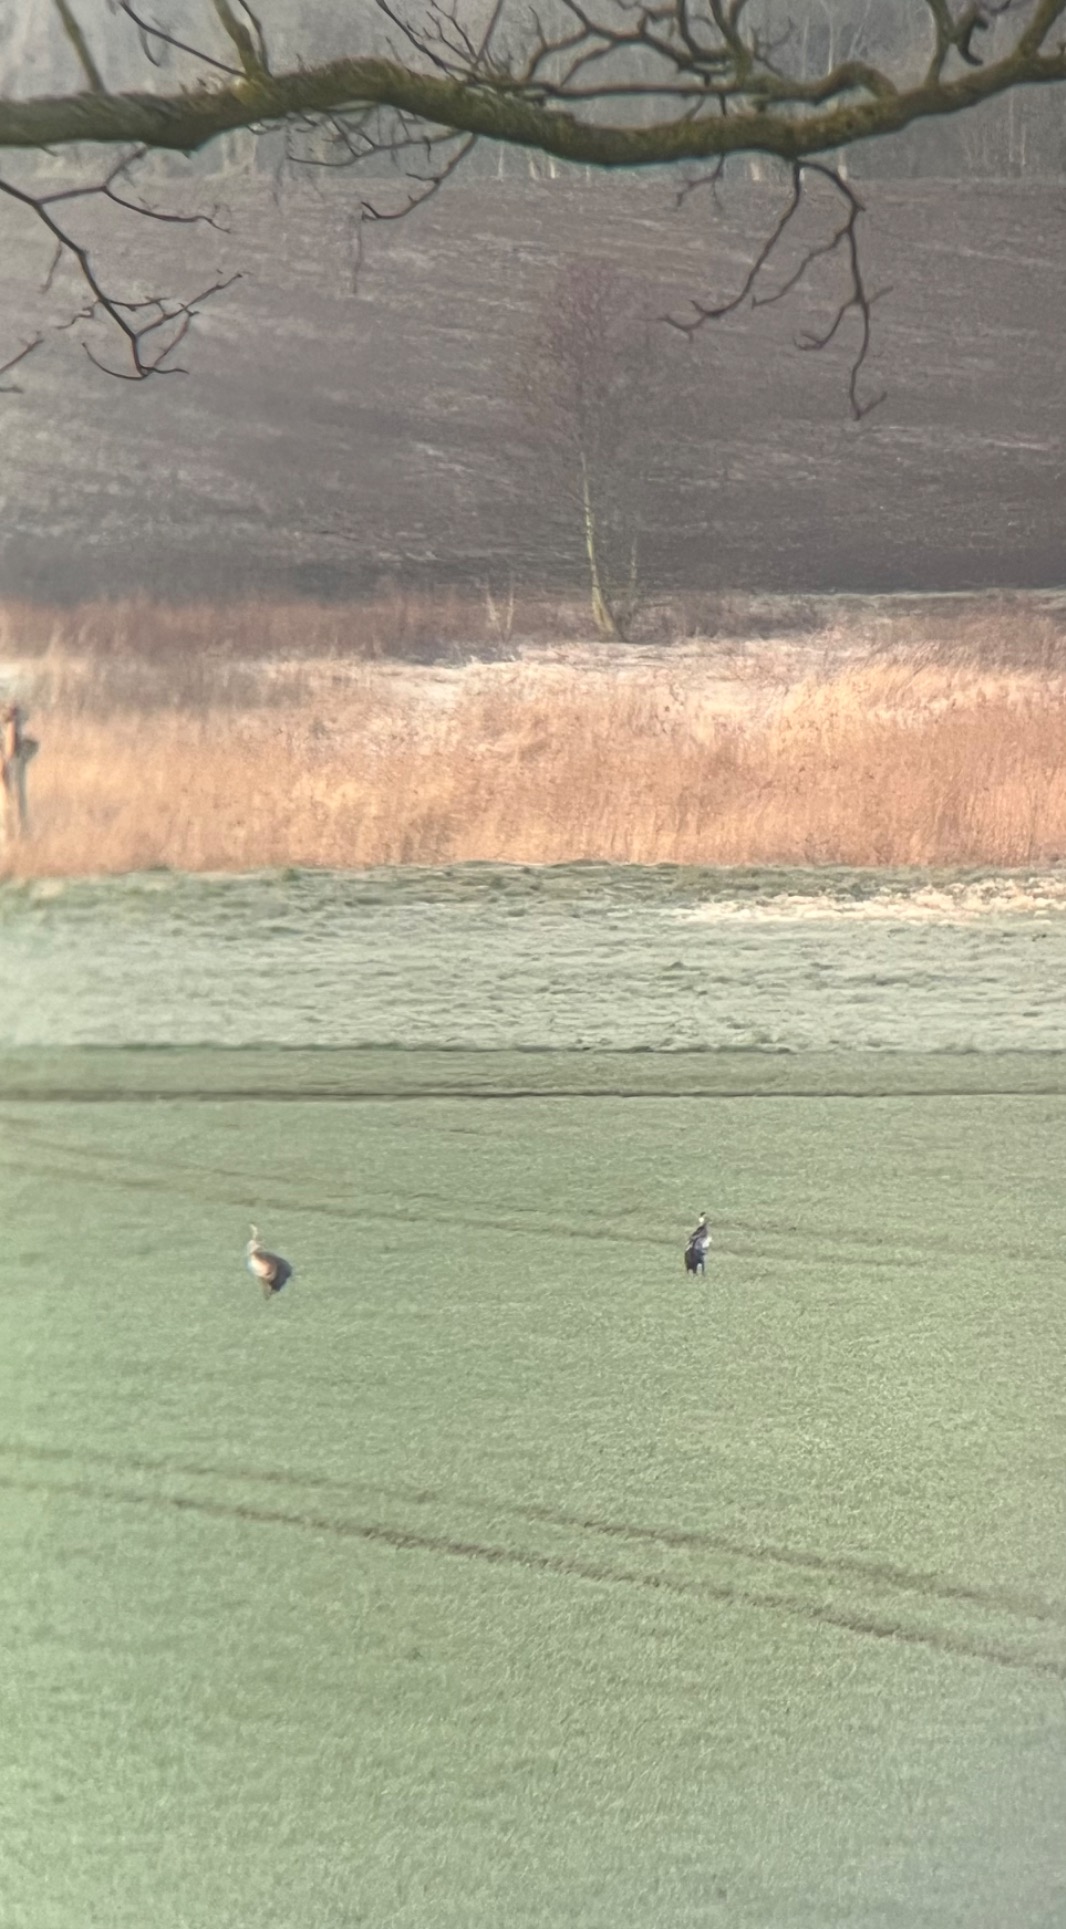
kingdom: Animalia
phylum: Chordata
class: Aves
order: Gruiformes
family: Gruidae
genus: Grus
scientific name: Grus grus
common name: Trane
